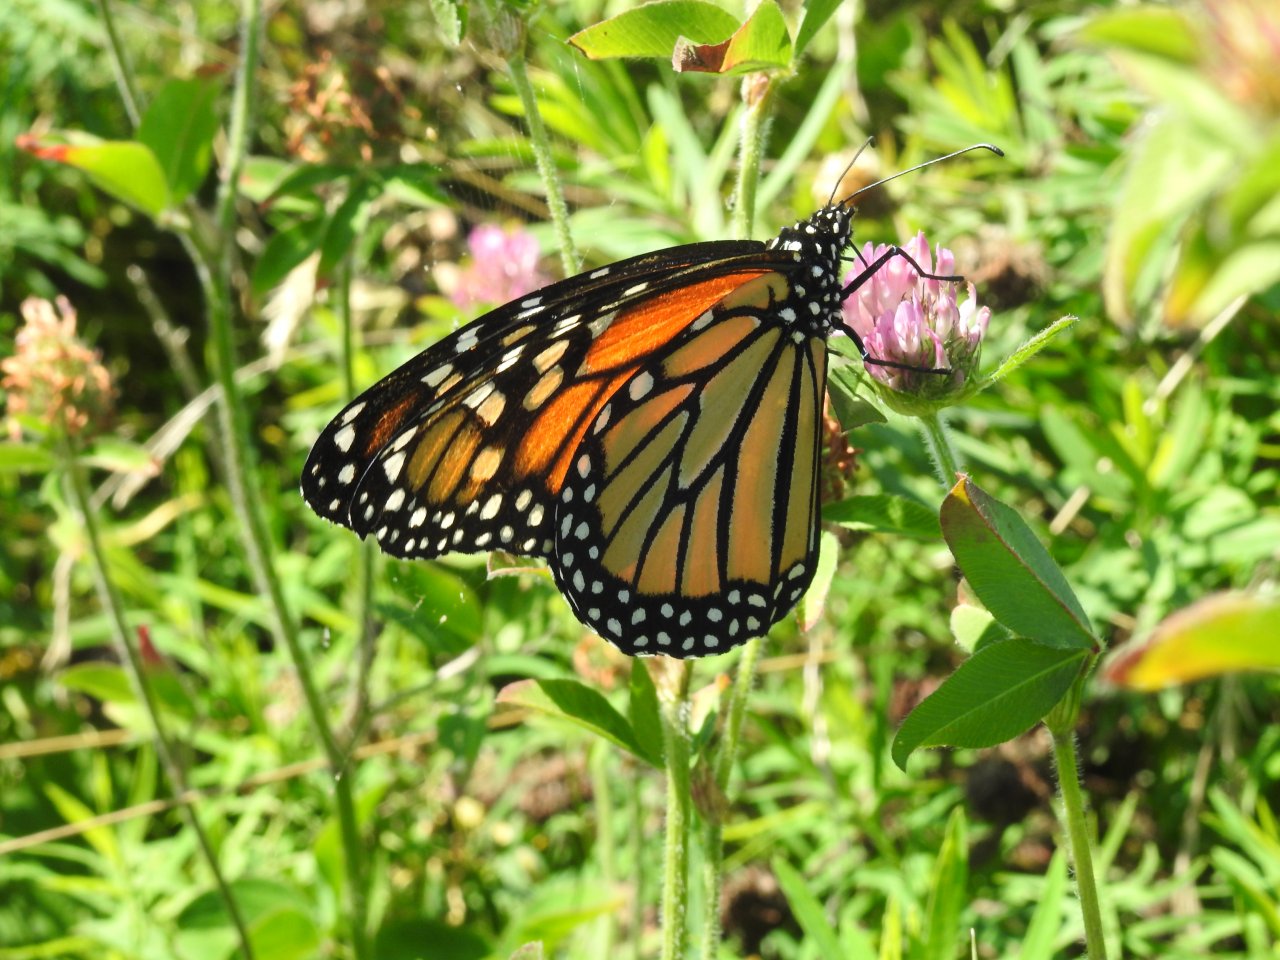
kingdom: Animalia
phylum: Arthropoda
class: Insecta
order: Lepidoptera
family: Nymphalidae
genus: Danaus
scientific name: Danaus plexippus
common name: Monarch
